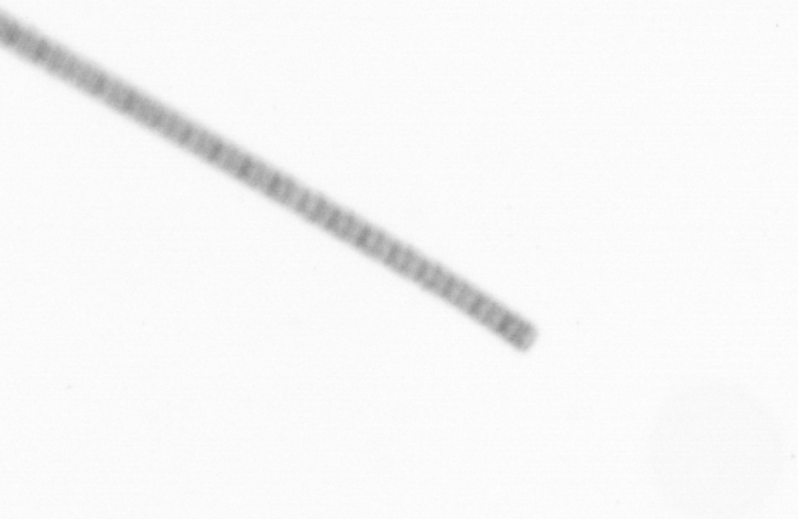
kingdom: Chromista
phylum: Ochrophyta
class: Bacillariophyceae
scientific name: Bacillariophyceae
